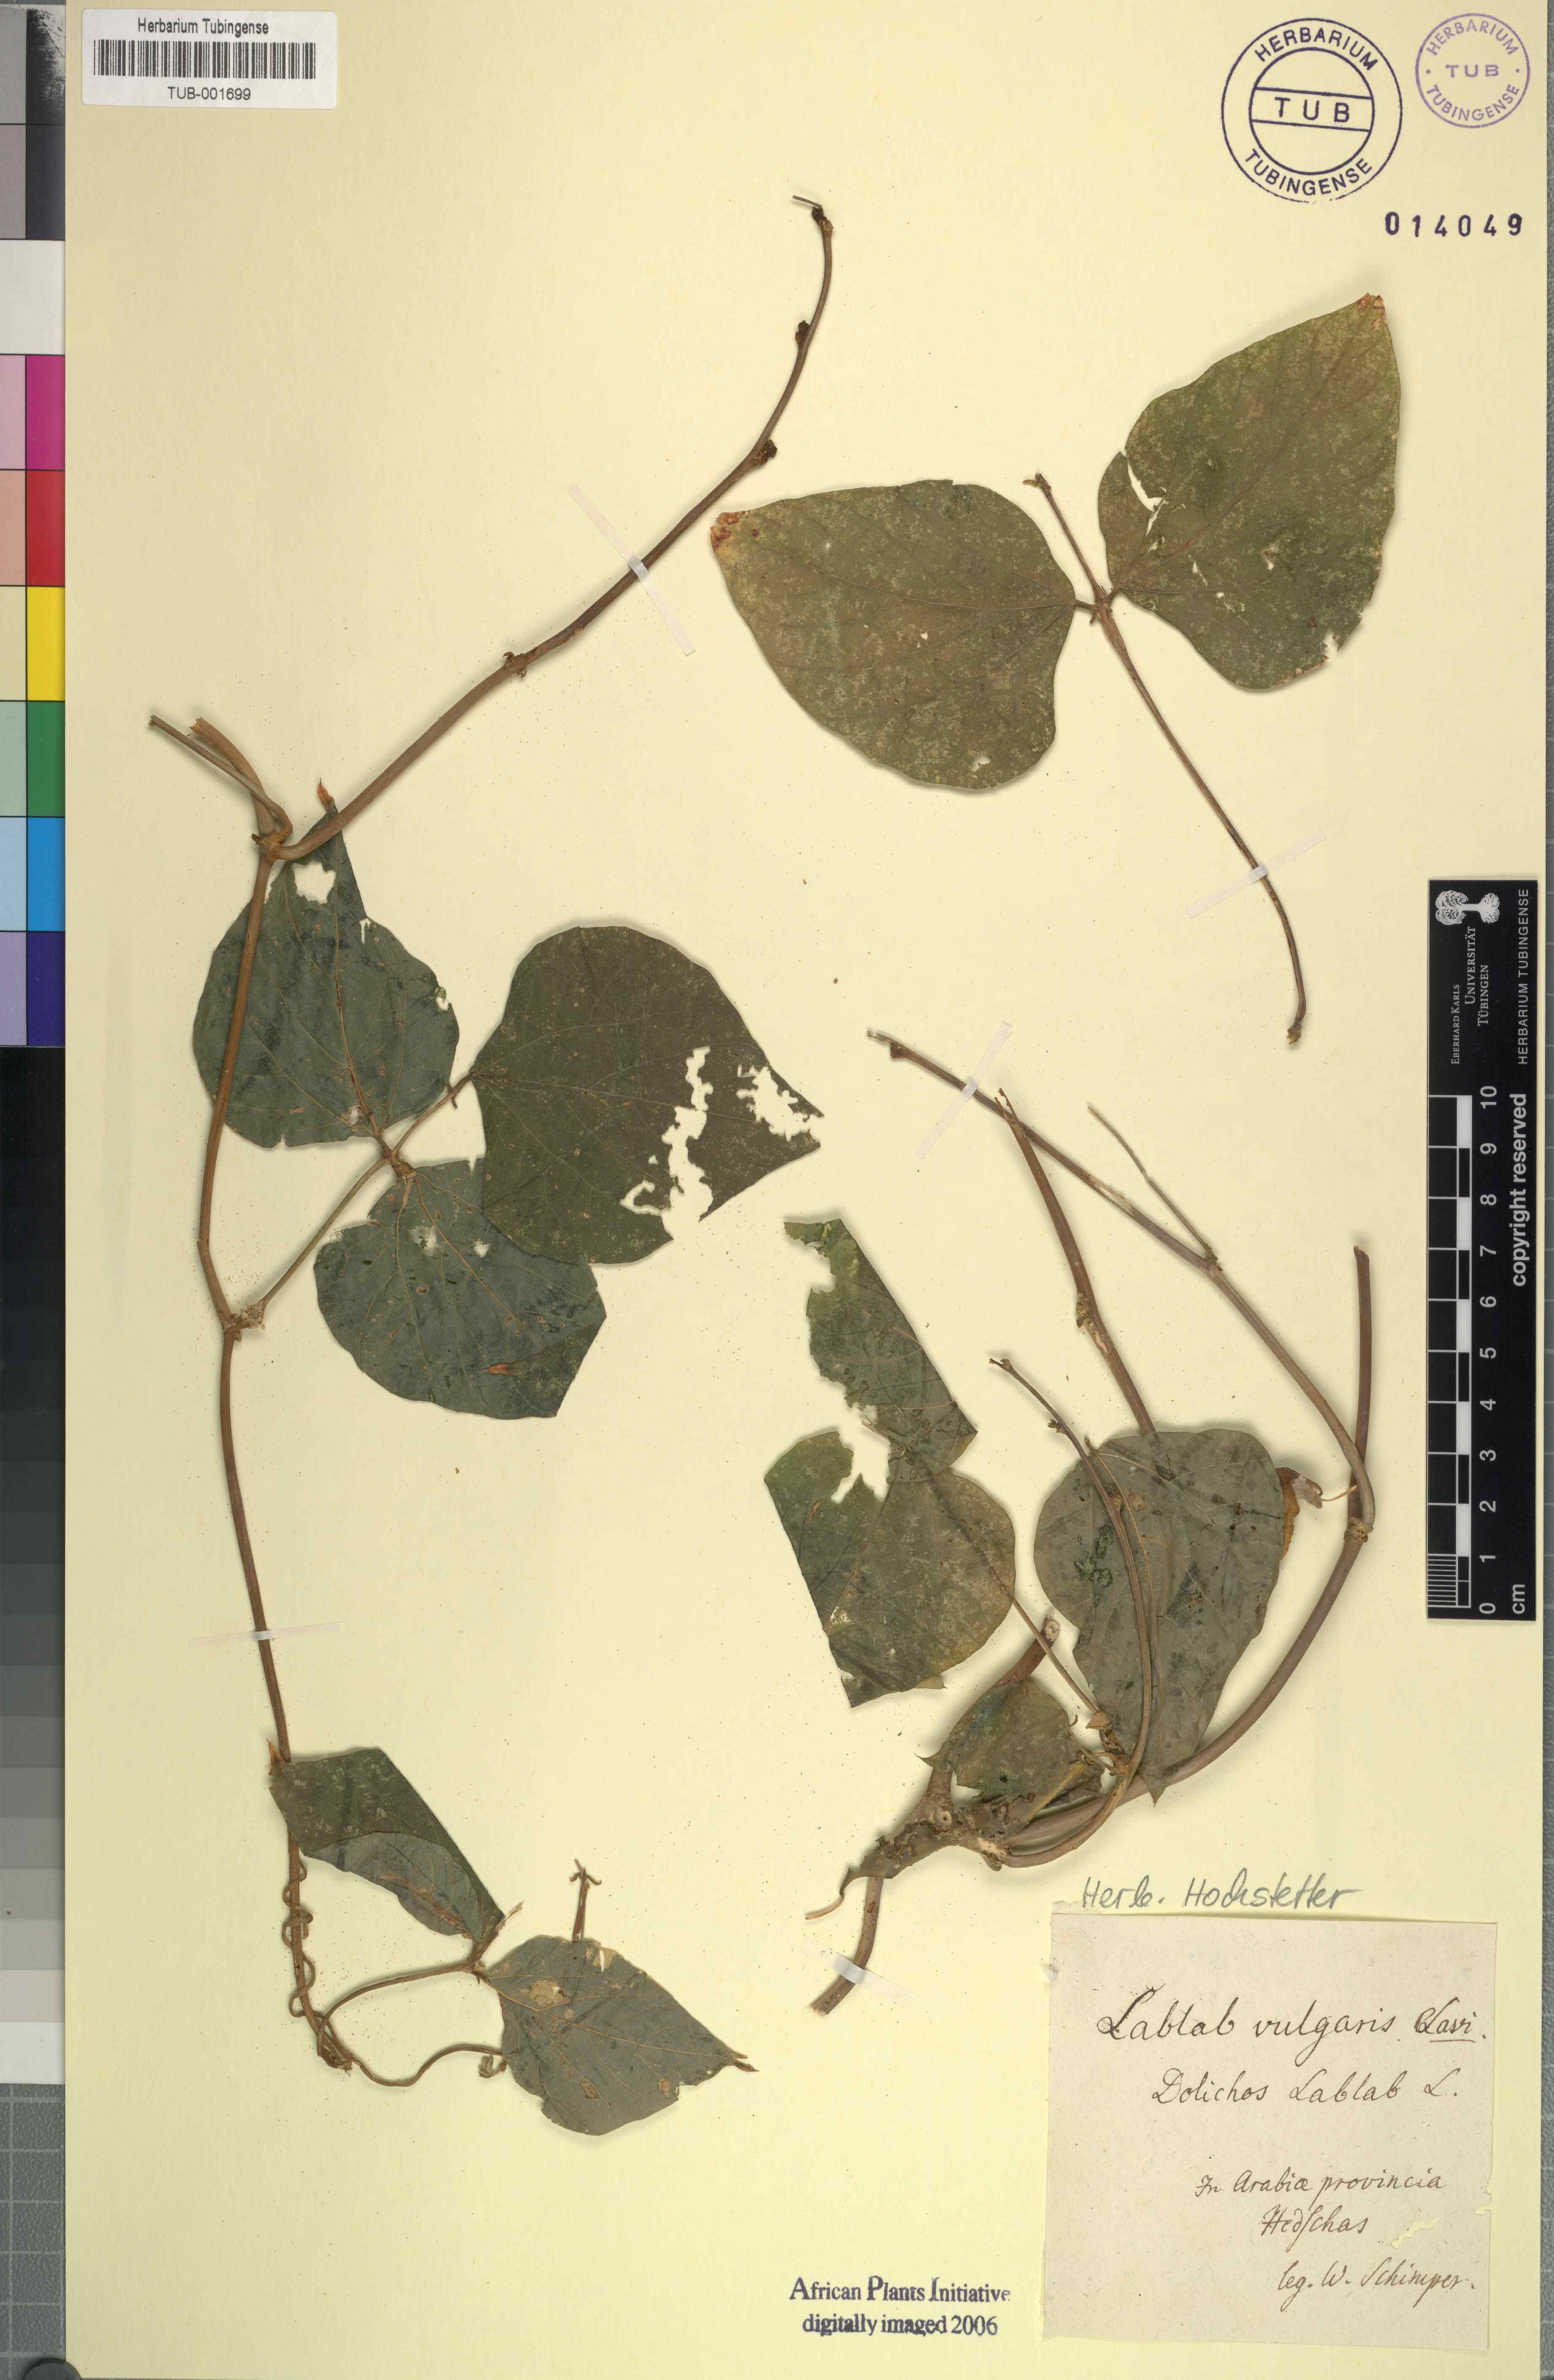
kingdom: Plantae
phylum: Tracheophyta
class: Magnoliopsida
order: Fabales
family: Fabaceae
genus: Lablab
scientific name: Lablab purpureus
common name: Lablab-bean
